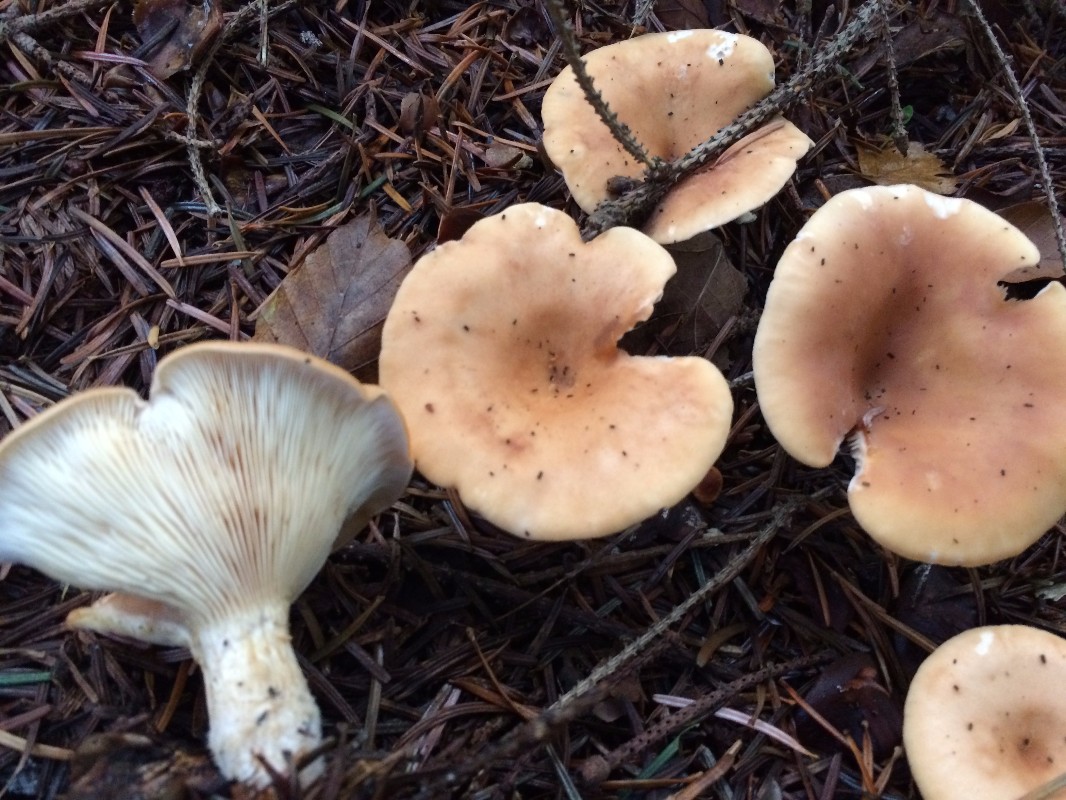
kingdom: Fungi
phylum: Basidiomycota
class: Agaricomycetes
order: Agaricales
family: Tricholomataceae
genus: Paralepista
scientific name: Paralepista flaccida
